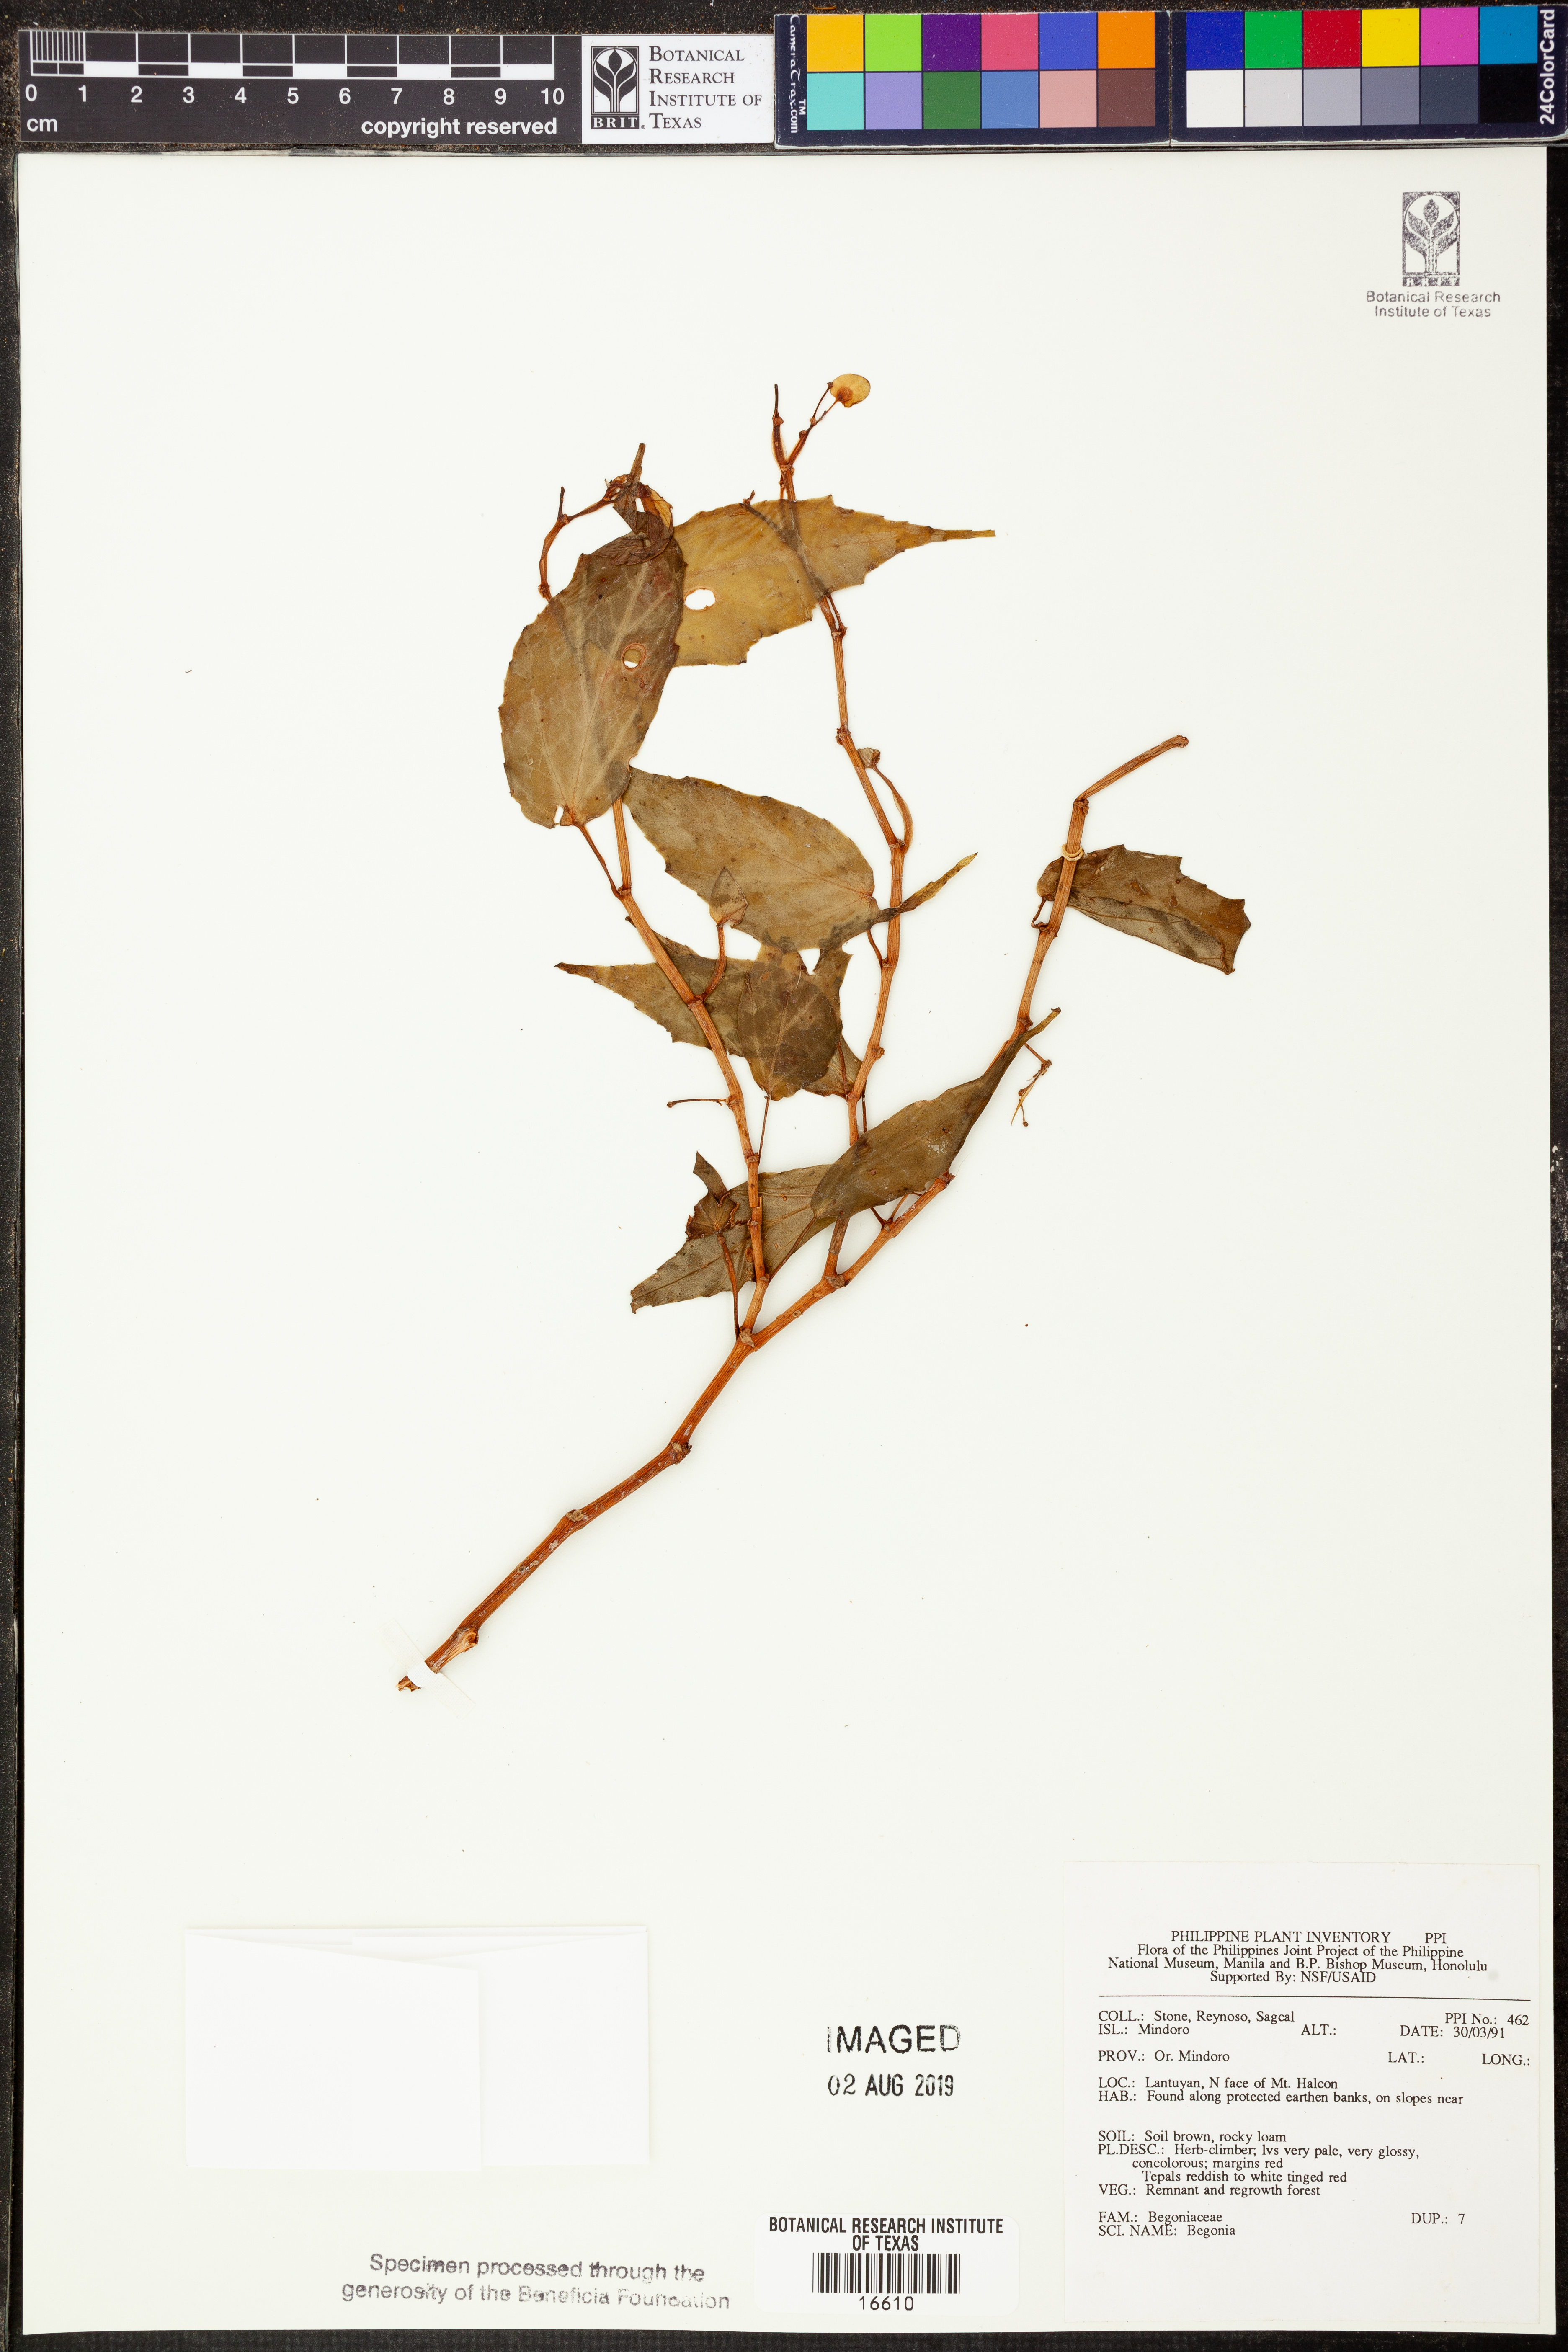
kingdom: Plantae
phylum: Tracheophyta
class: Magnoliopsida
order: Cucurbitales
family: Begoniaceae
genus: Begonia
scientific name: Begonia
